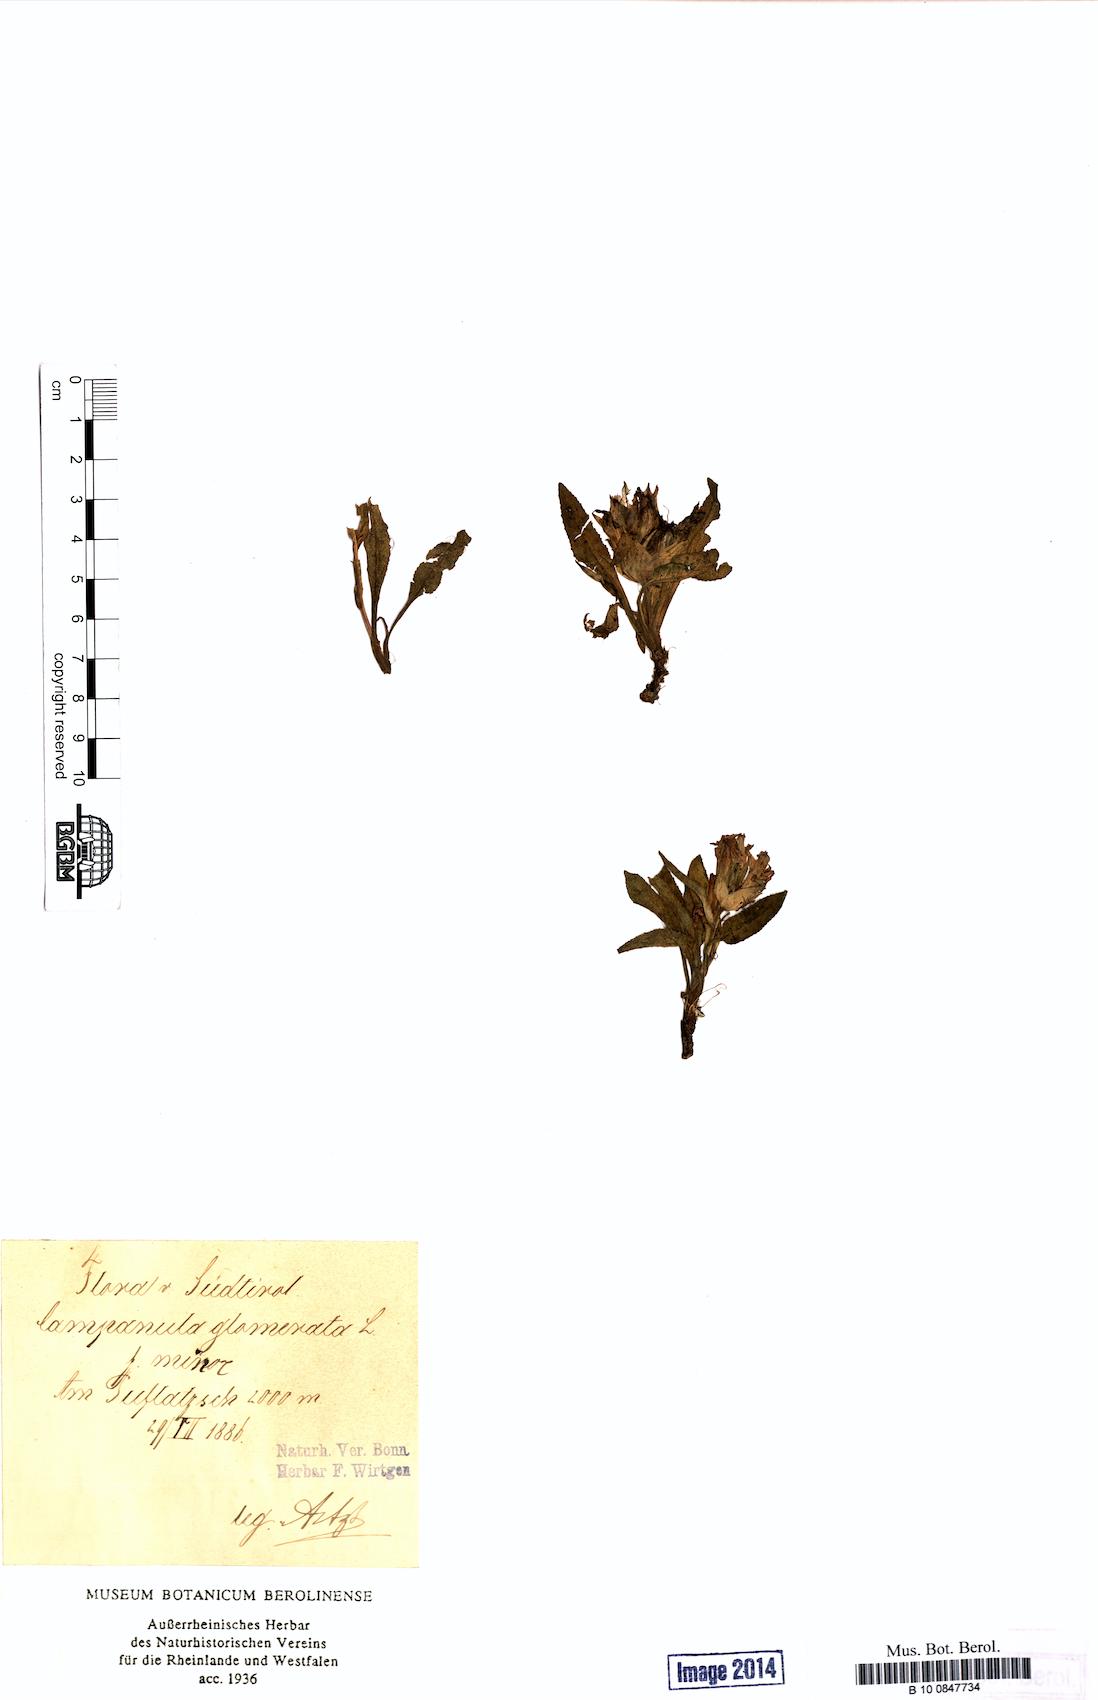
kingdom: Plantae
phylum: Tracheophyta
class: Magnoliopsida
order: Asterales
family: Campanulaceae
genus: Campanula
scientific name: Campanula glomerata
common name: Clustered bellflower
